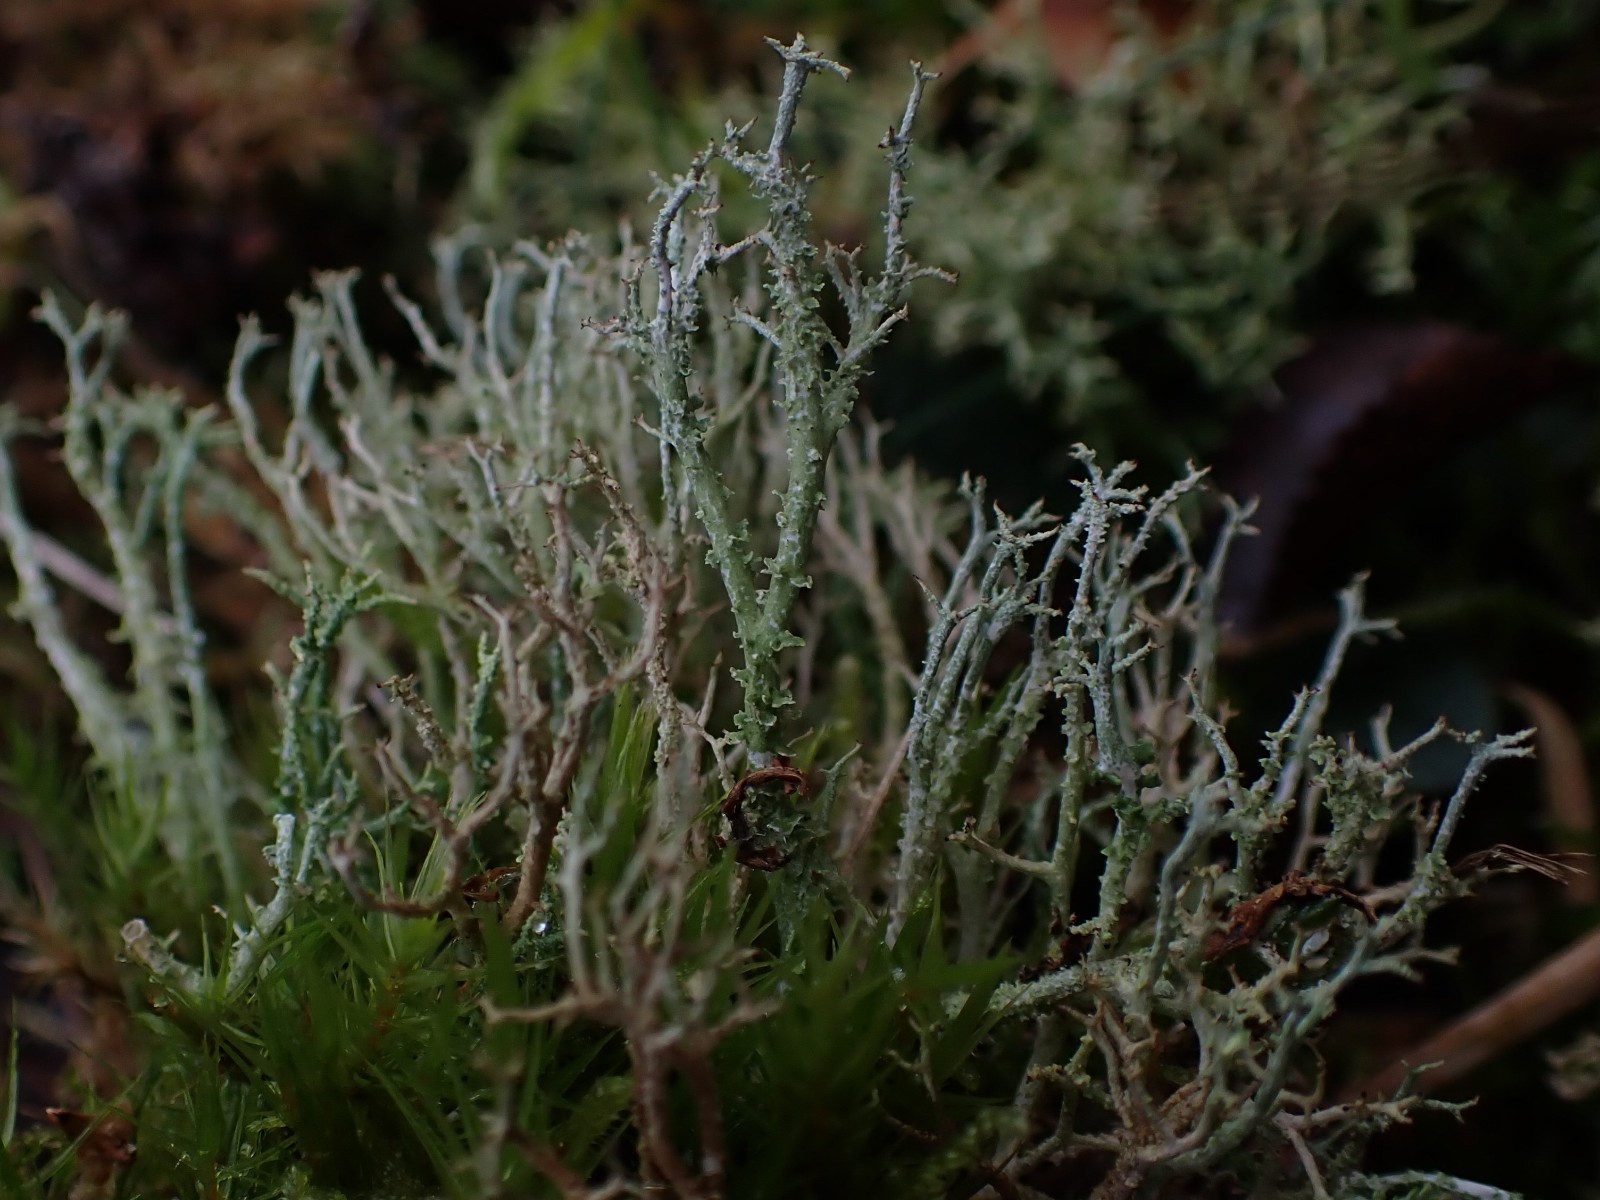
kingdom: Fungi
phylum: Ascomycota
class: Lecanoromycetes
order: Lecanorales
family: Cladoniaceae
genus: Cladonia
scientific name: Cladonia scabriuscula
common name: ru bægerlav
